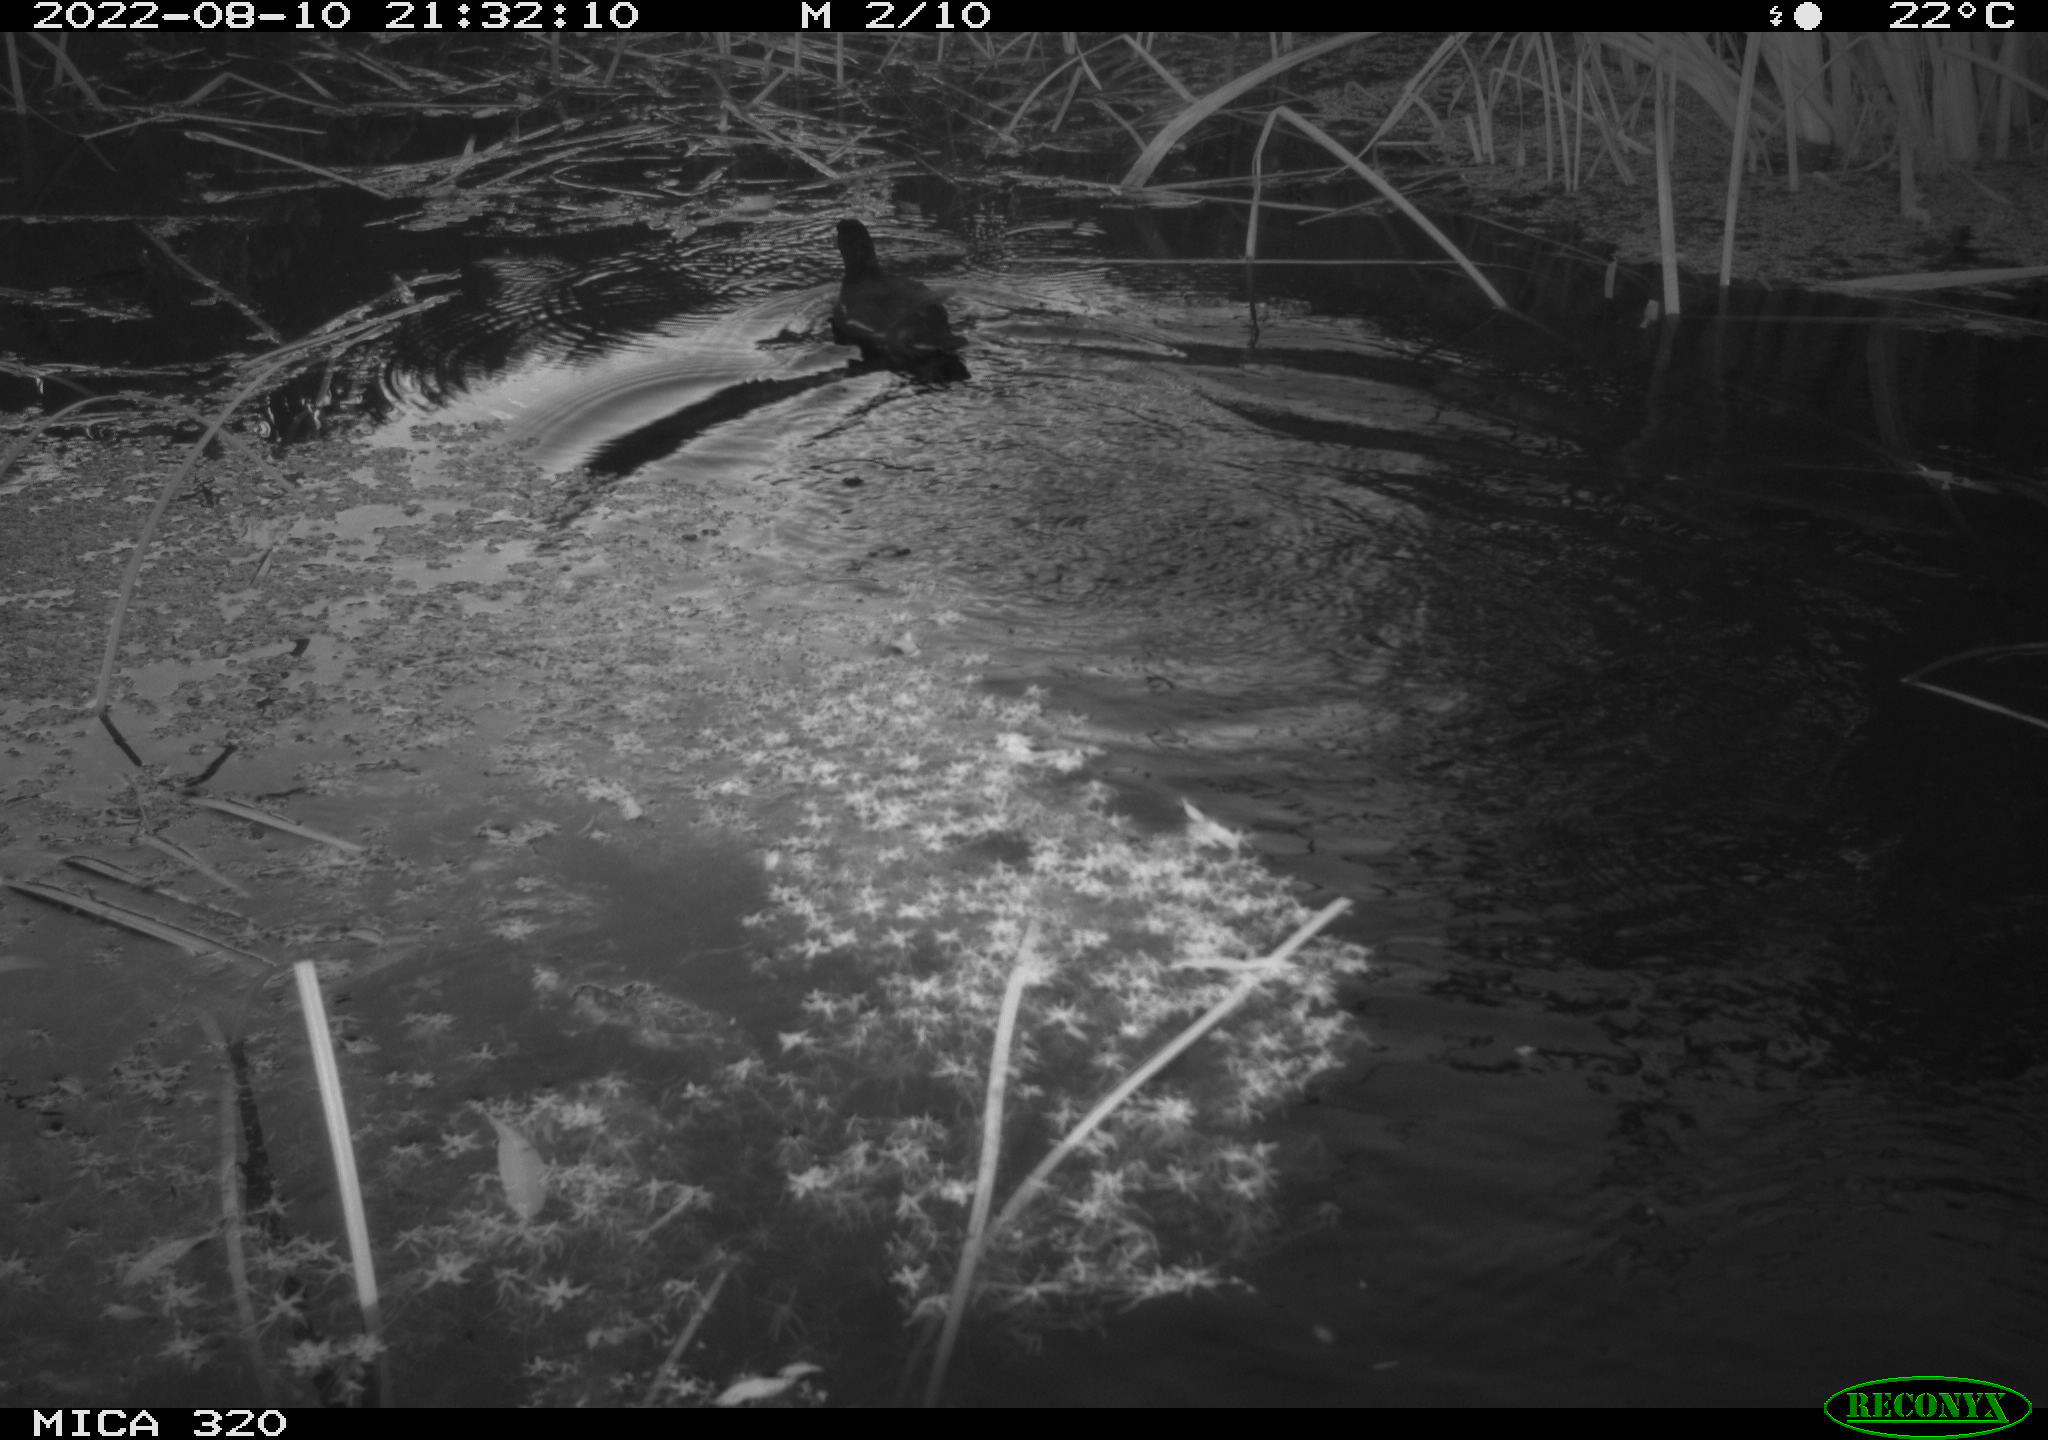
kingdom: Animalia
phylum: Chordata
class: Aves
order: Gruiformes
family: Rallidae
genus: Gallinula
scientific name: Gallinula chloropus
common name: Common moorhen
